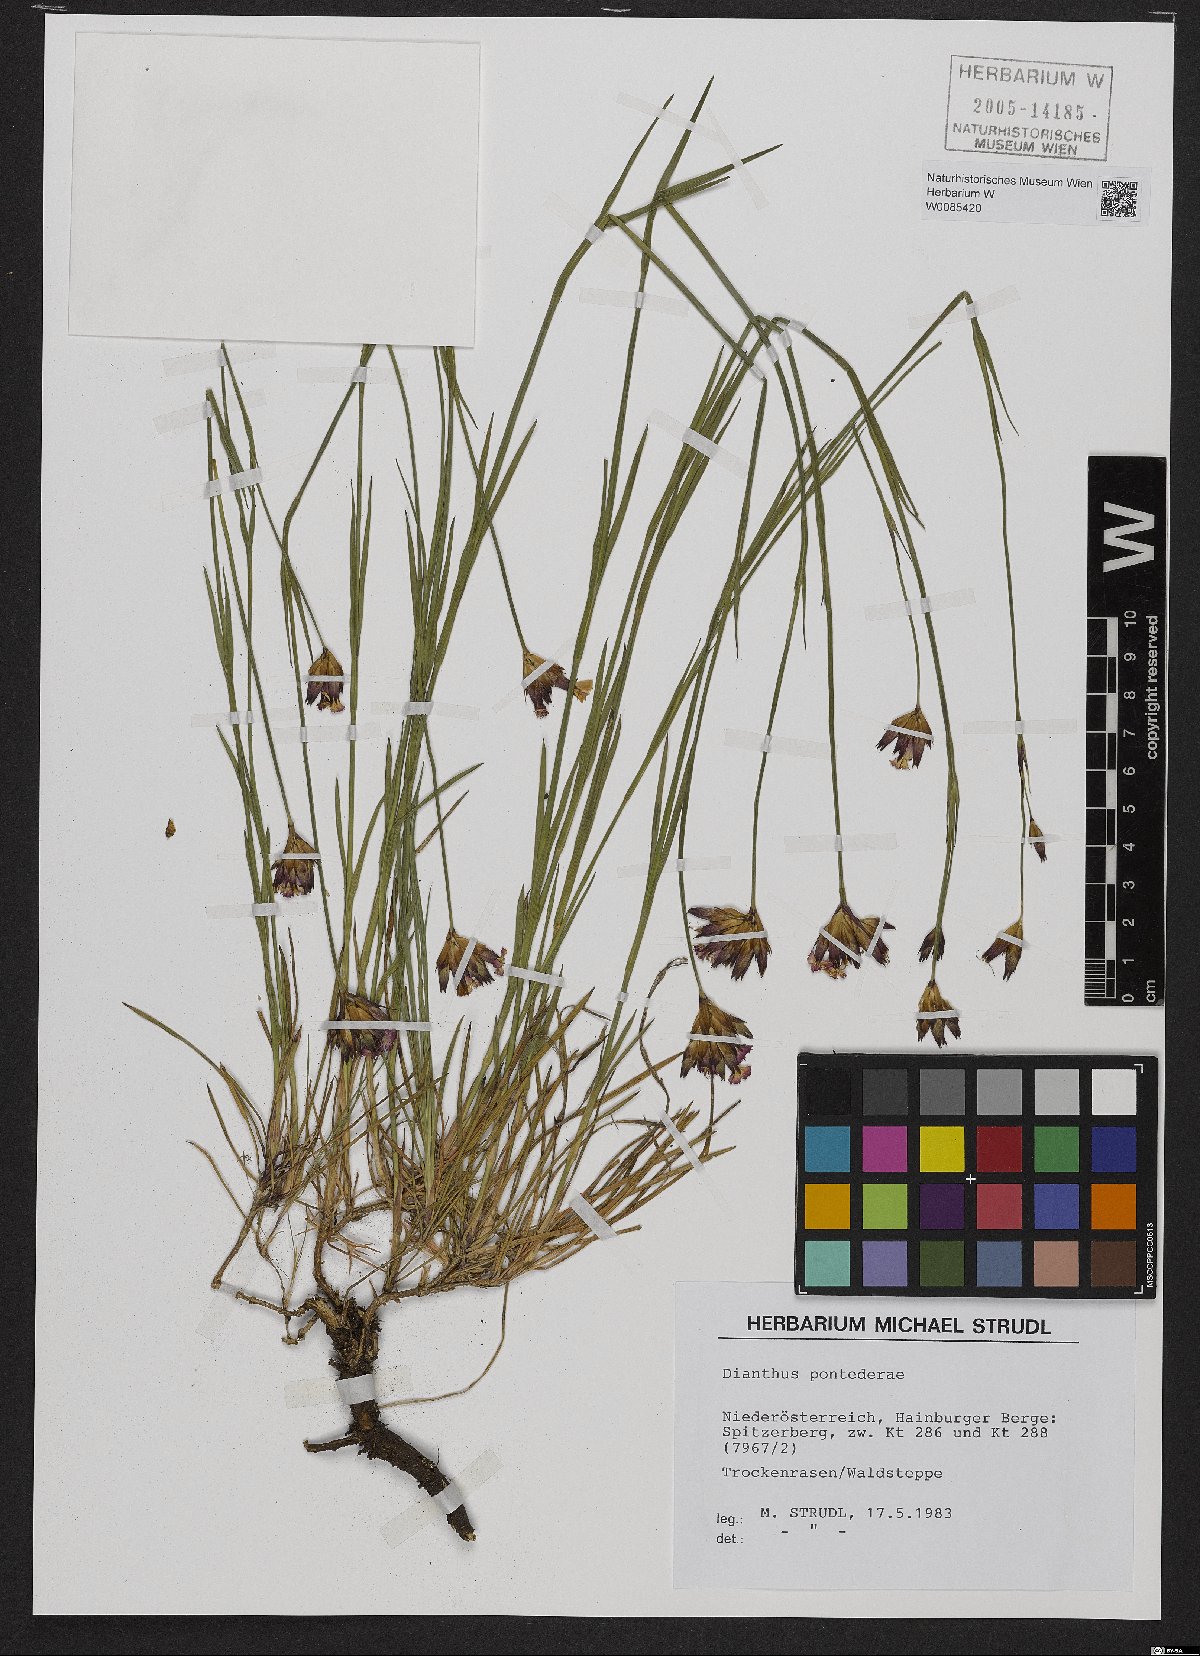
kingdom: Plantae
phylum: Tracheophyta
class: Magnoliopsida
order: Caryophyllales
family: Caryophyllaceae
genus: Dianthus
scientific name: Dianthus pontederae
